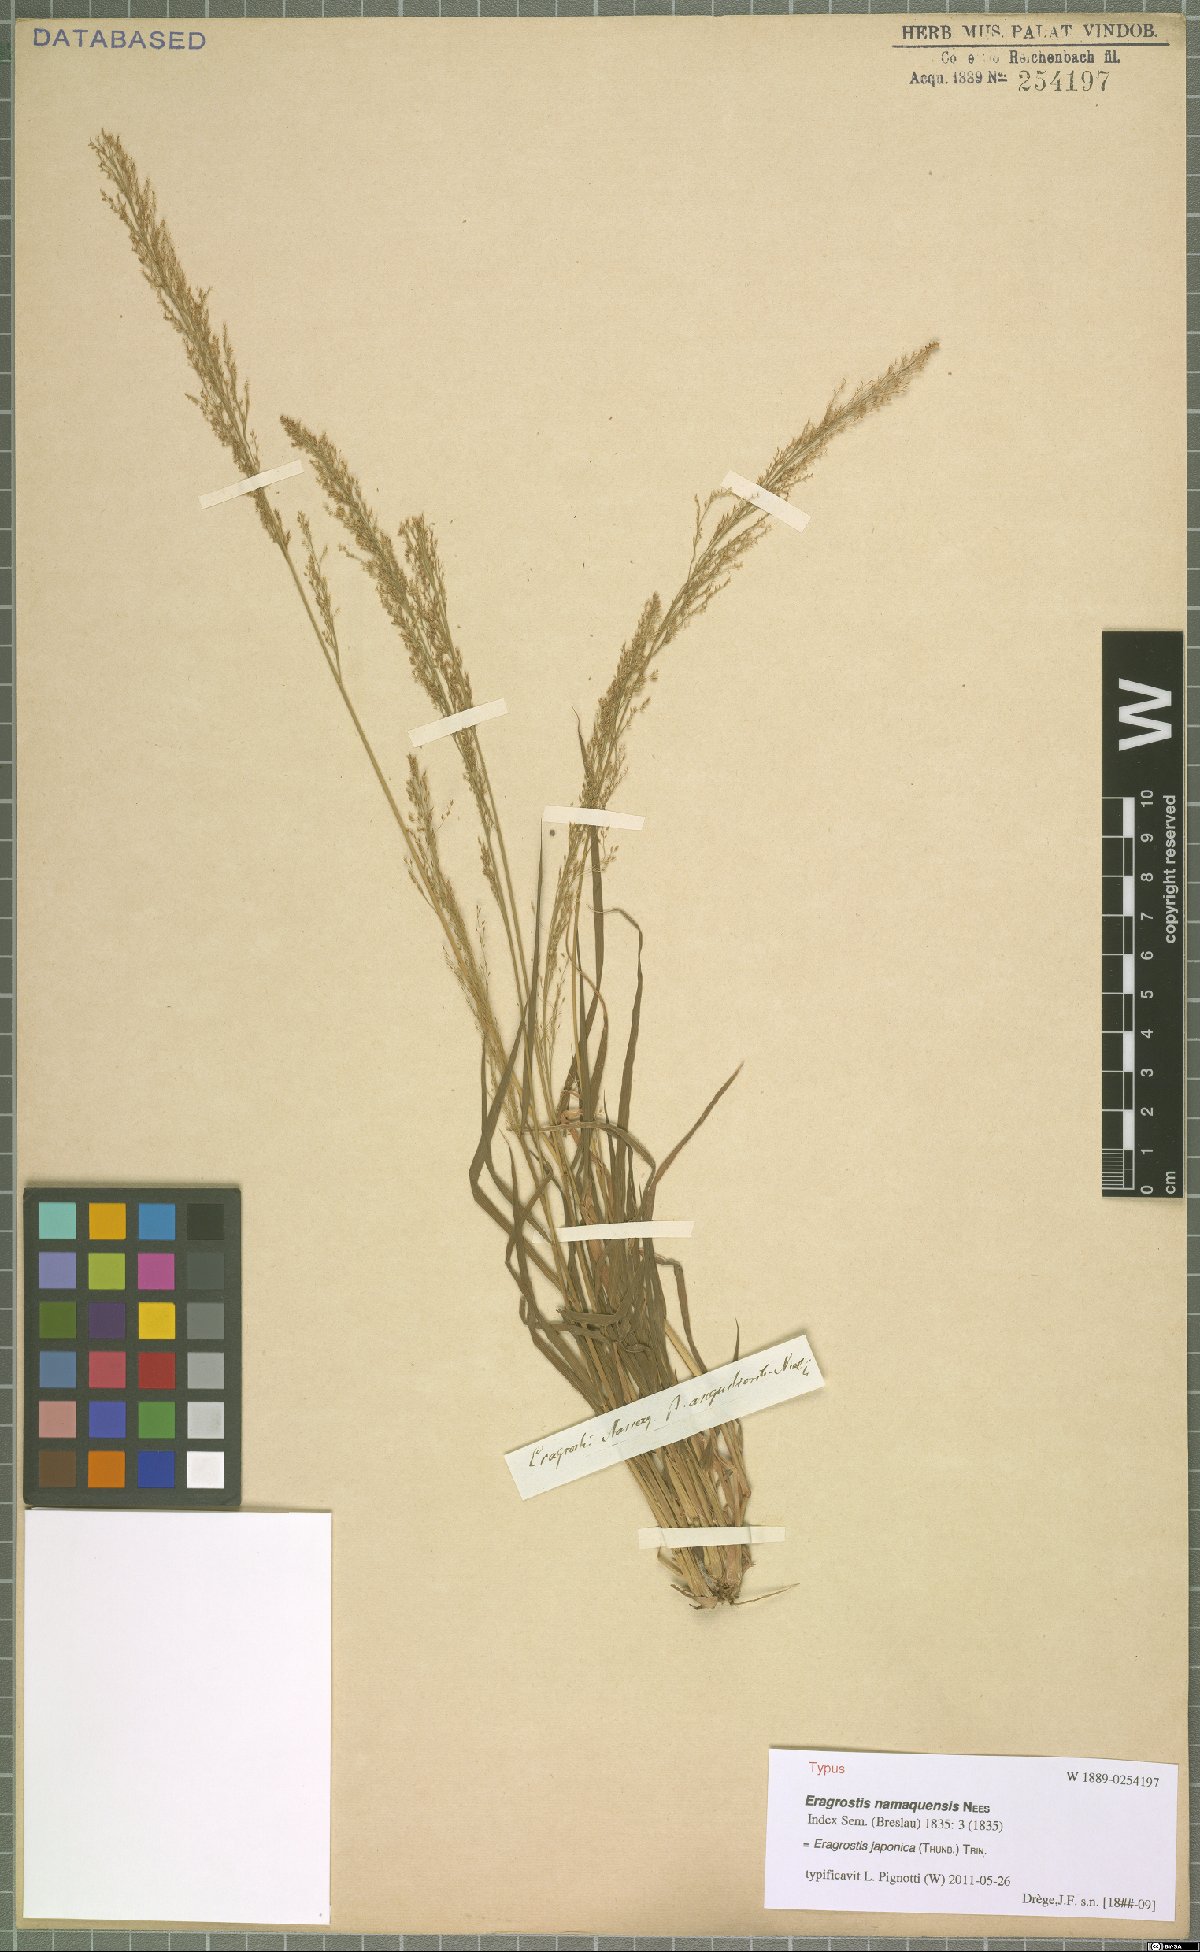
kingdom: Plantae
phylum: Tracheophyta
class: Liliopsida
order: Poales
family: Poaceae
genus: Eragrostis
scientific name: Eragrostis japonica
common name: Pond lovegrass
